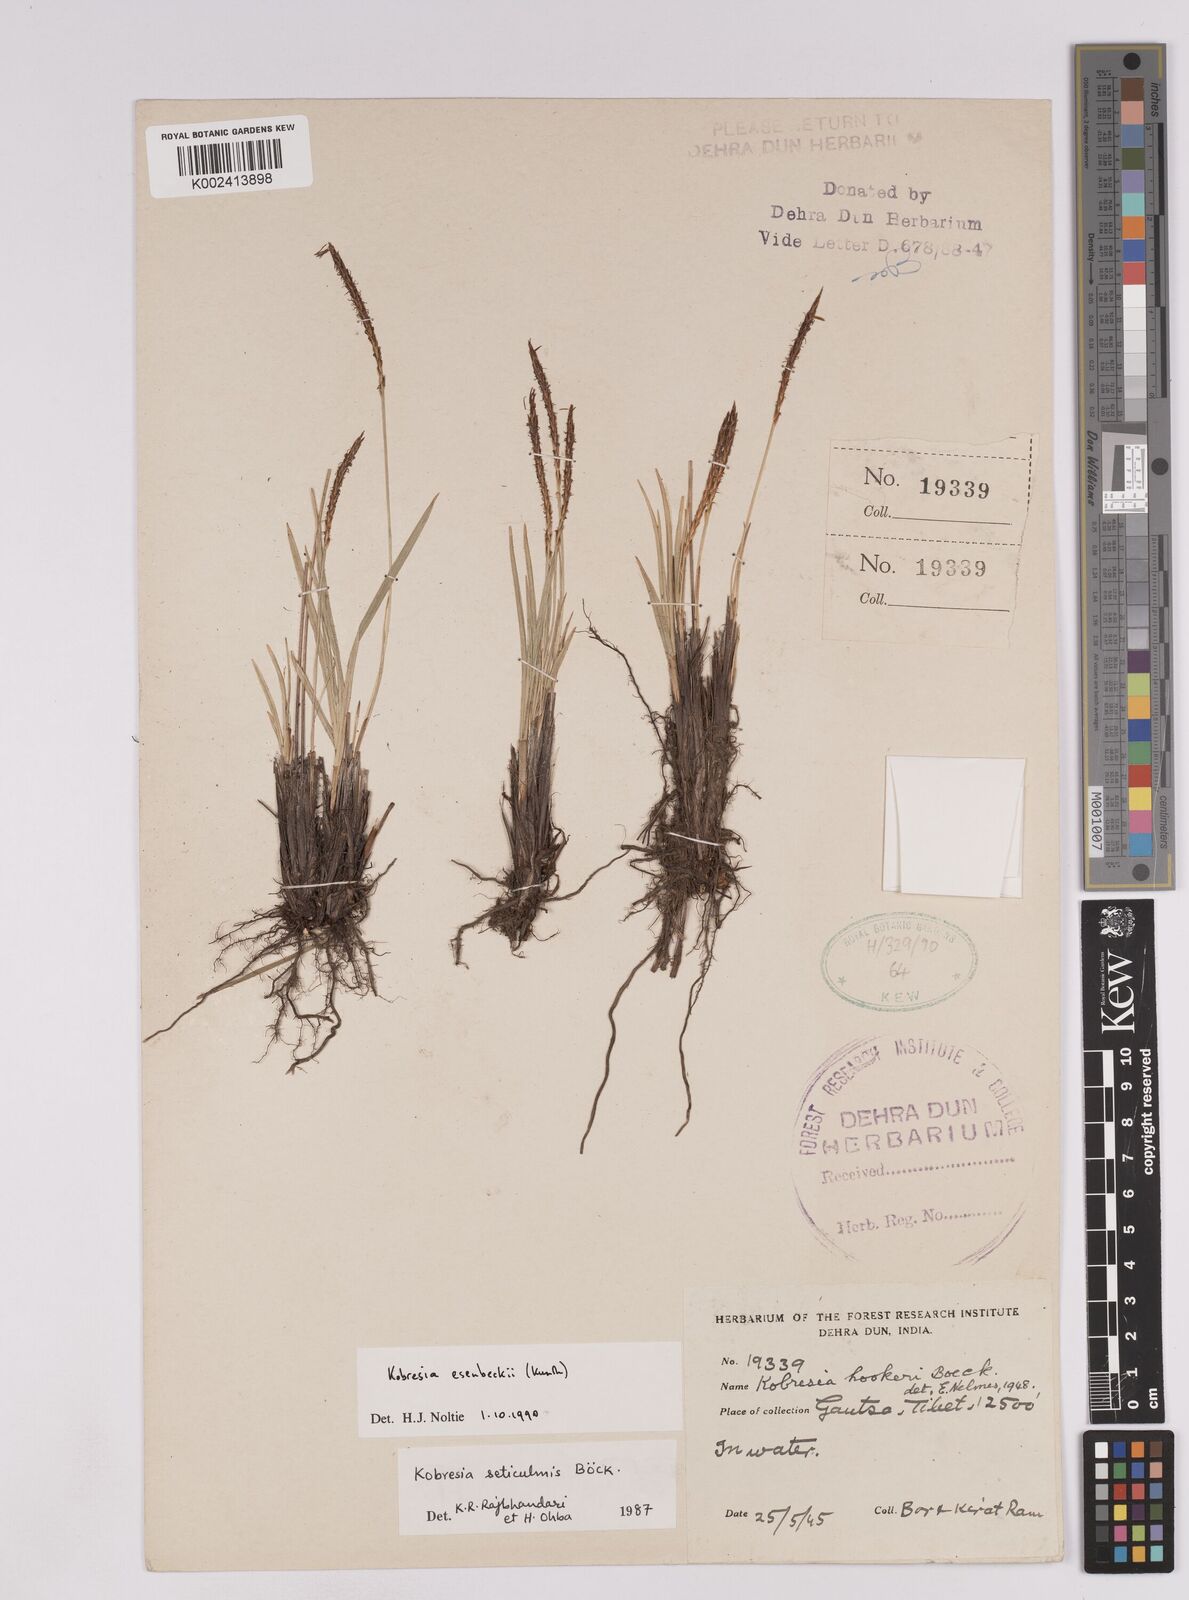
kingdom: Plantae
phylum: Tracheophyta
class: Liliopsida
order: Poales
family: Cyperaceae
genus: Carex
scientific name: Carex esenbeckii
